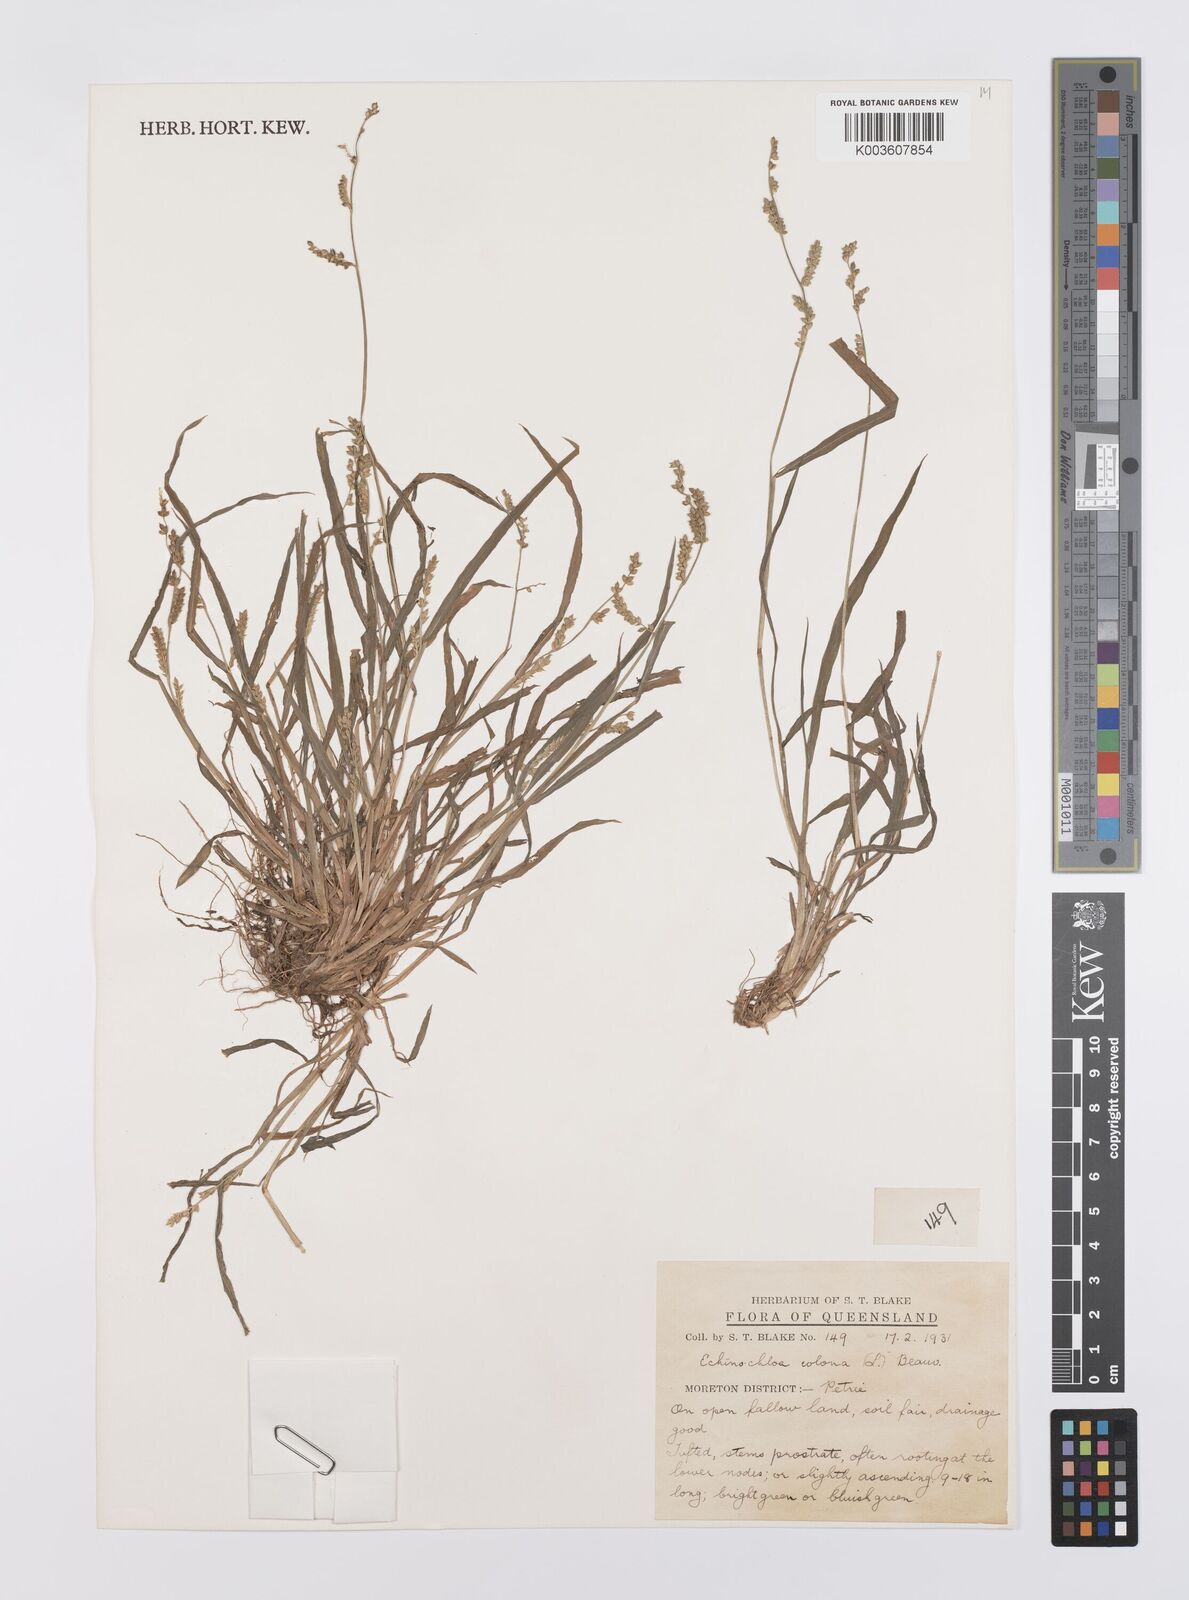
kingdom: Plantae
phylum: Tracheophyta
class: Liliopsida
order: Poales
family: Poaceae
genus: Echinochloa
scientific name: Echinochloa colonum
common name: Jungle rice
